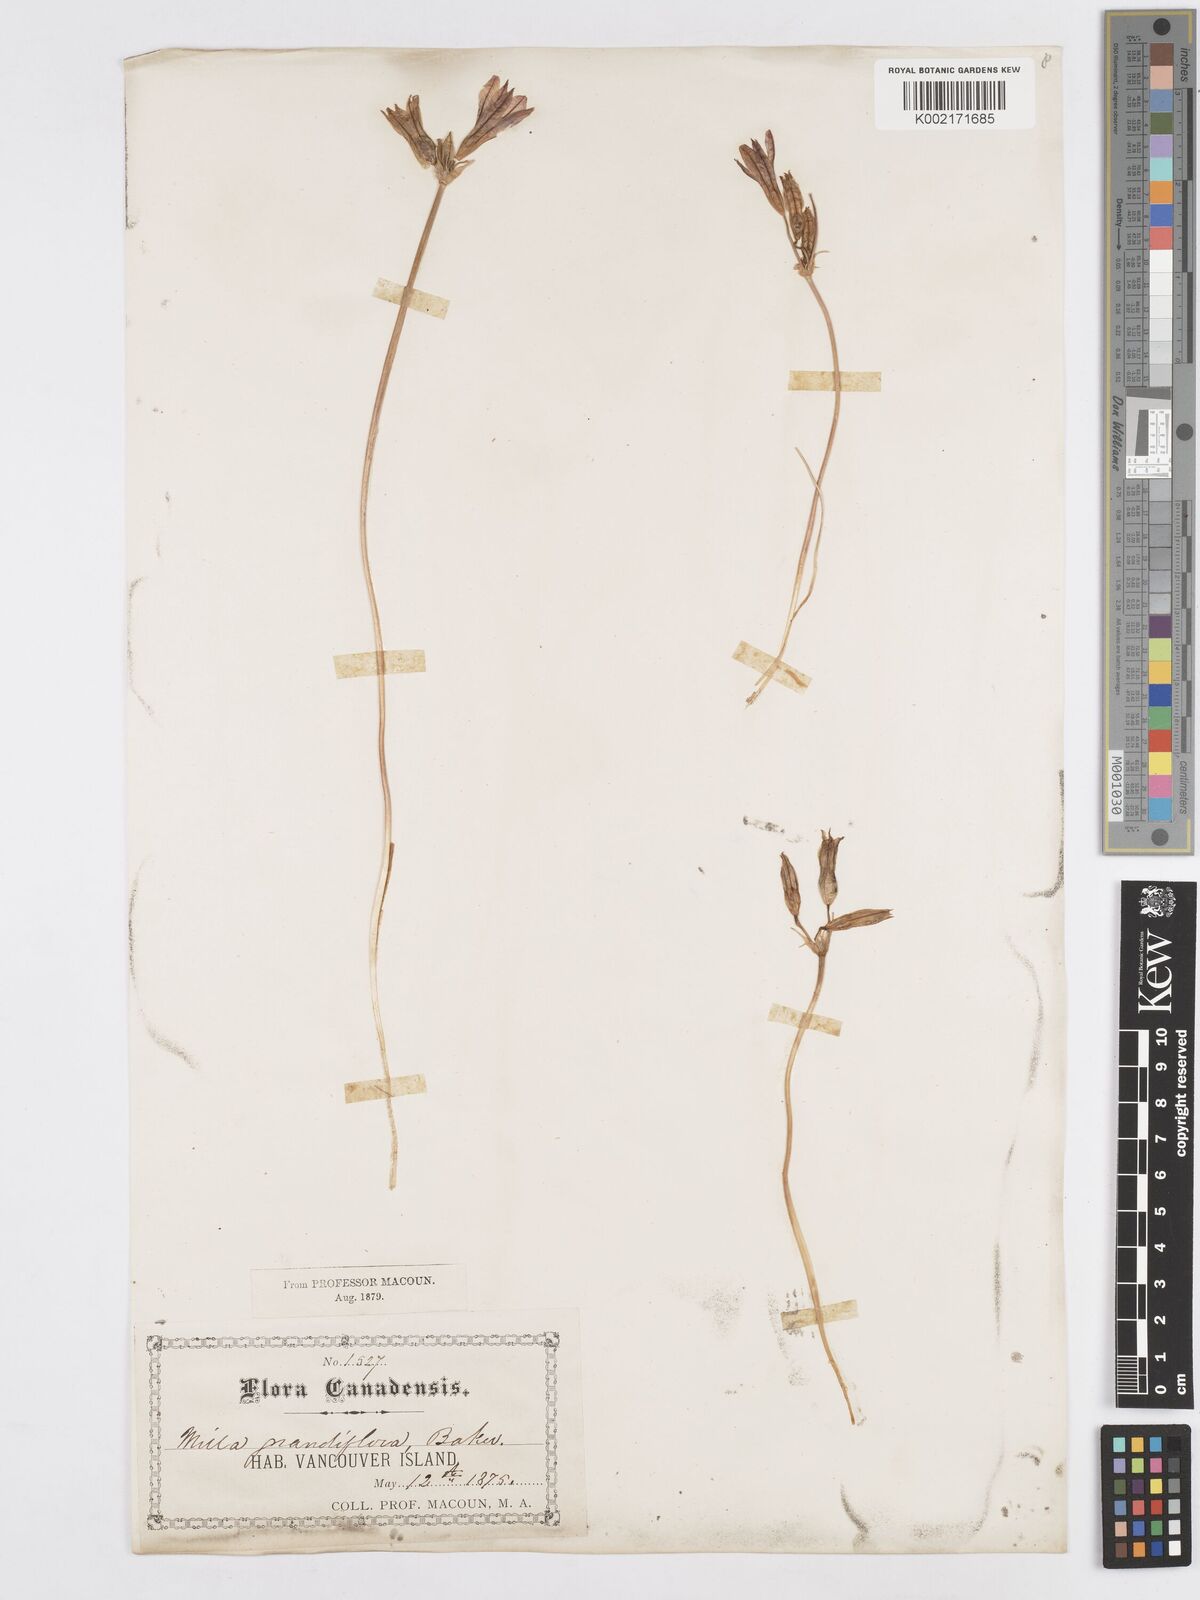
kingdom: Plantae
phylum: Tracheophyta
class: Liliopsida
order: Asparagales
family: Asparagaceae
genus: Triteleia
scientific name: Triteleia grandiflora
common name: Wild hyacinth
